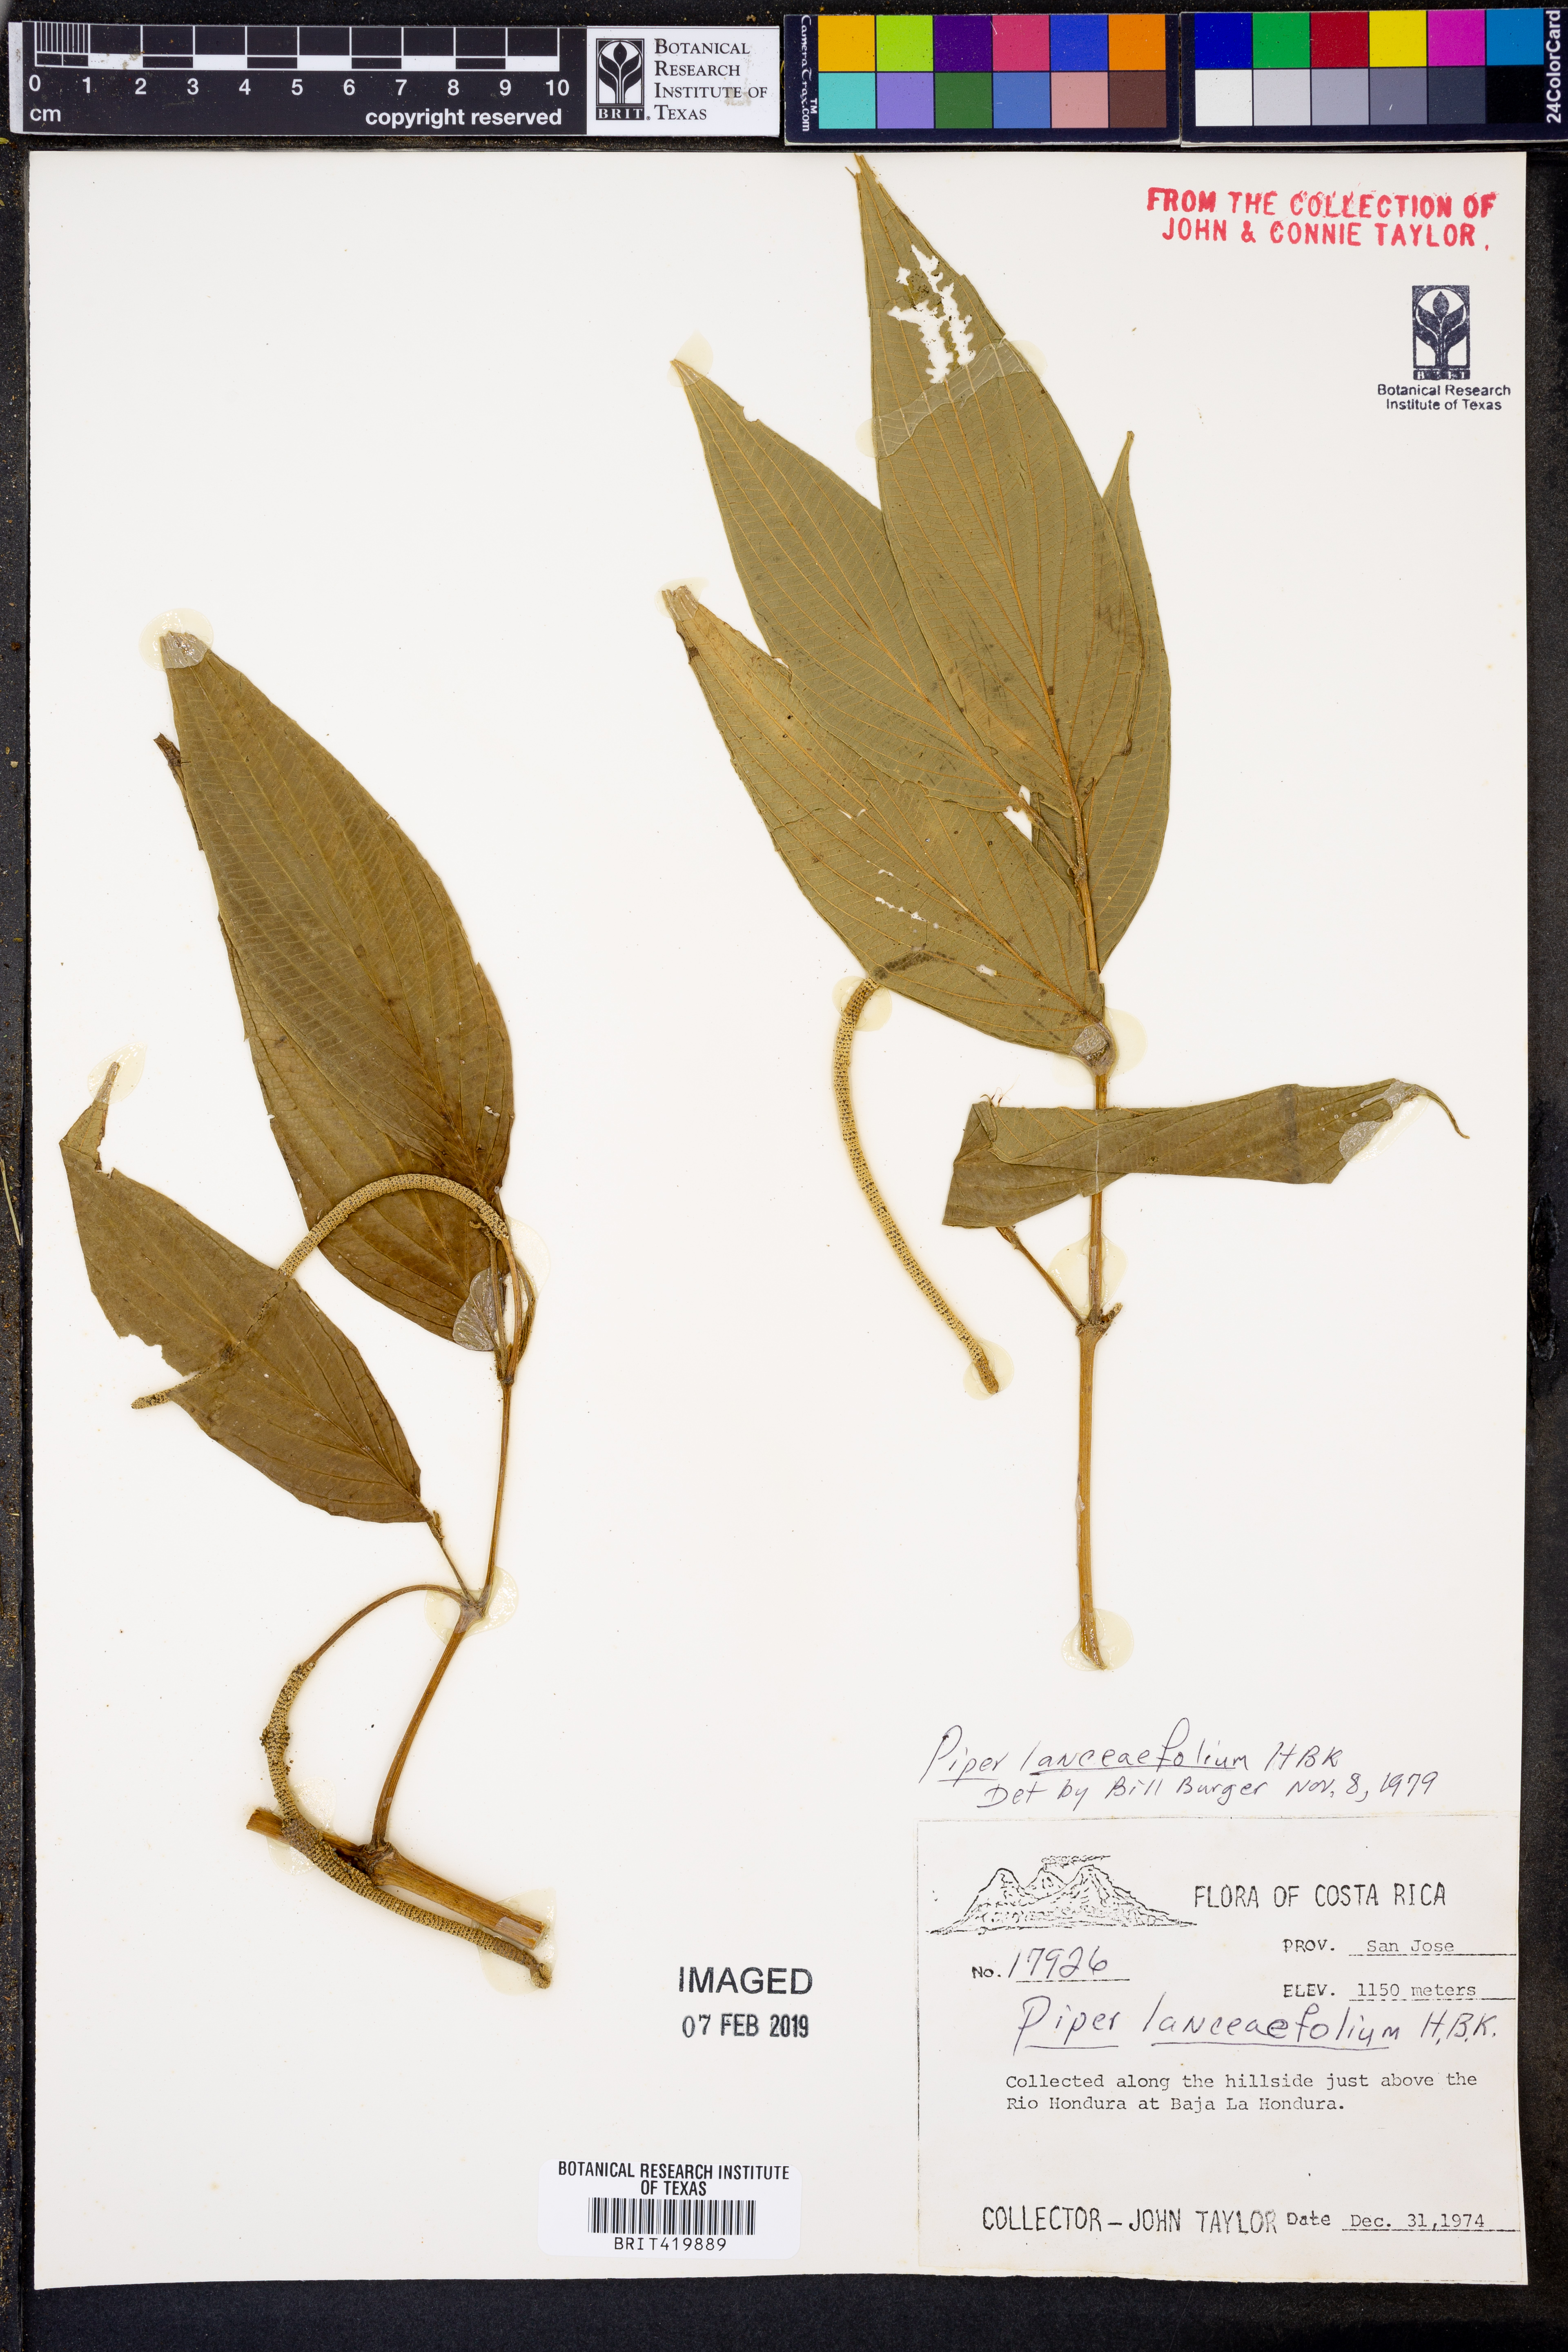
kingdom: Plantae
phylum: Tracheophyta
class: Magnoliopsida
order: Piperales
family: Piperaceae
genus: Piper
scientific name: Piper lanceifolium
